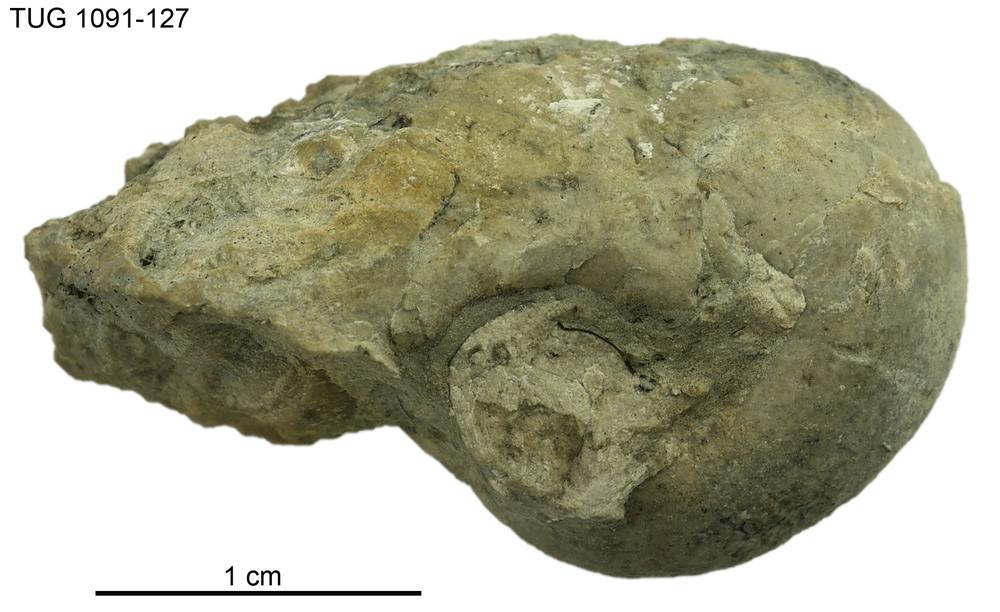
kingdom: Animalia
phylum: Mollusca
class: Gastropoda
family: Bucaniidae
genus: Boiotremus
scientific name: Boiotremus
